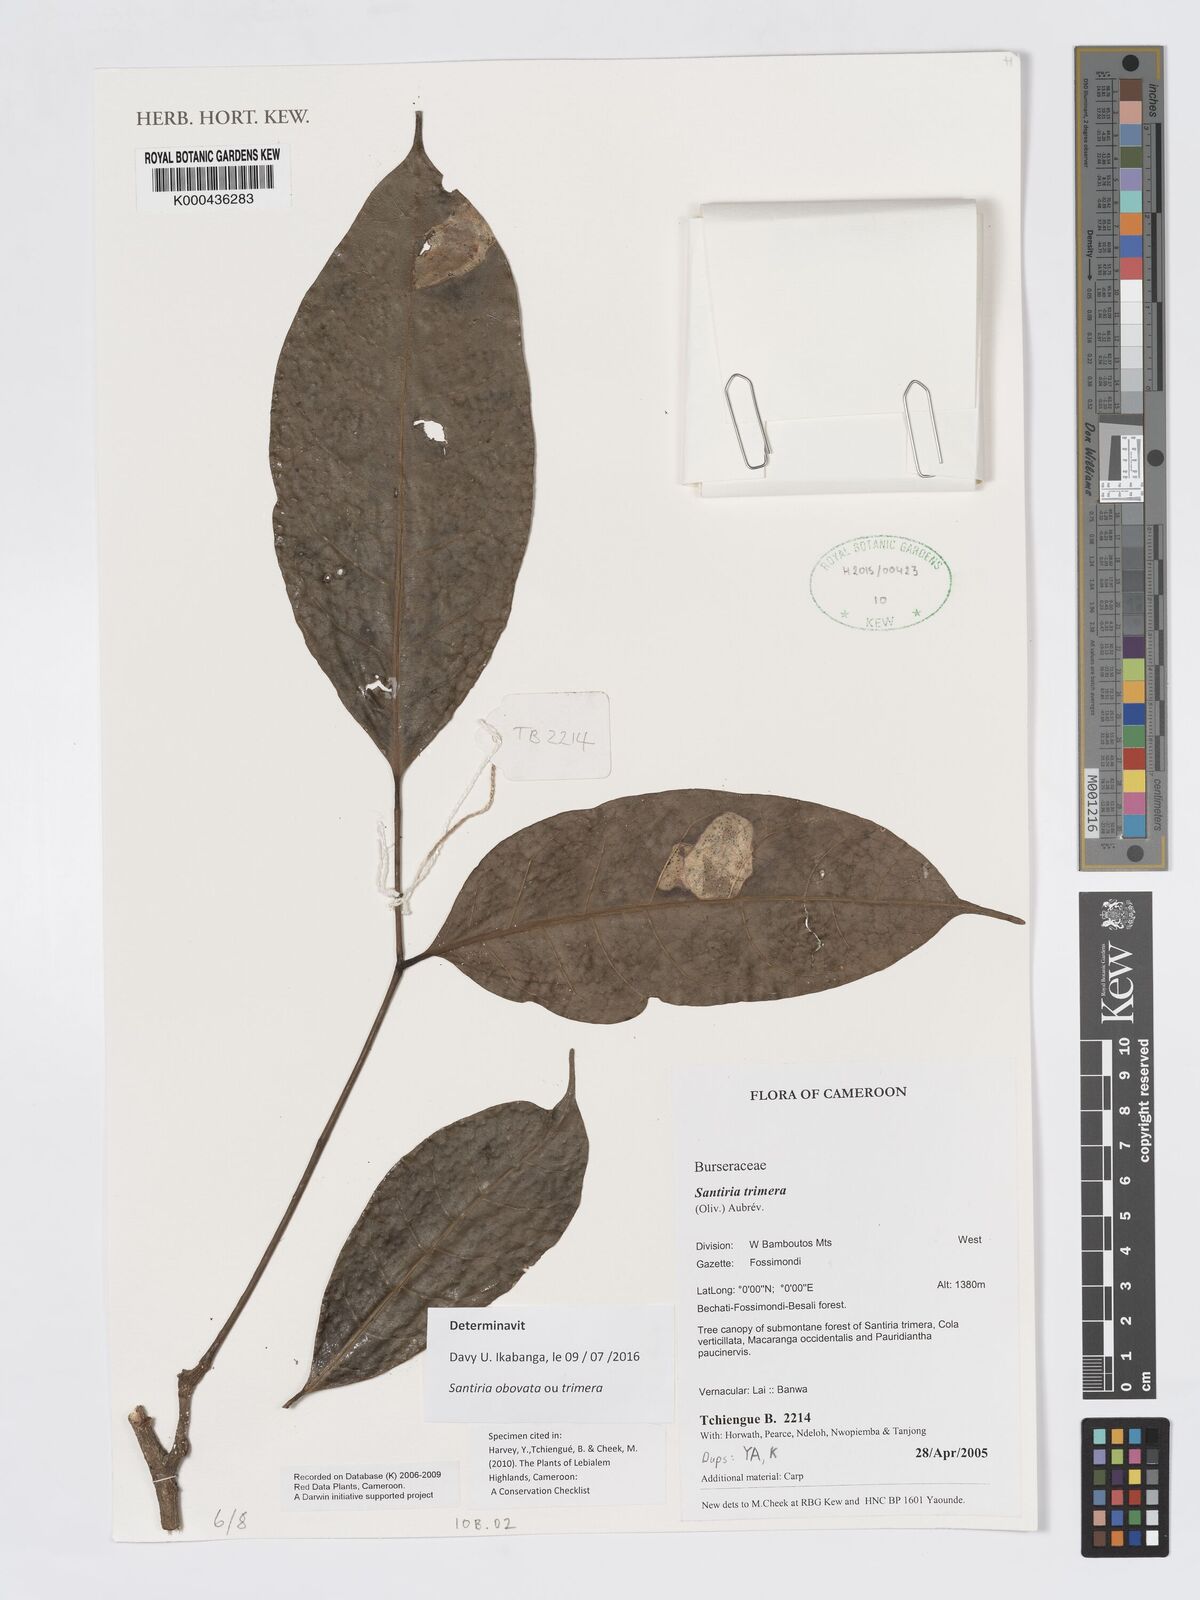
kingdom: Plantae
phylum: Tracheophyta
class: Magnoliopsida
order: Sapindales
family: Burseraceae
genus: Santiria
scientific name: Santiria
